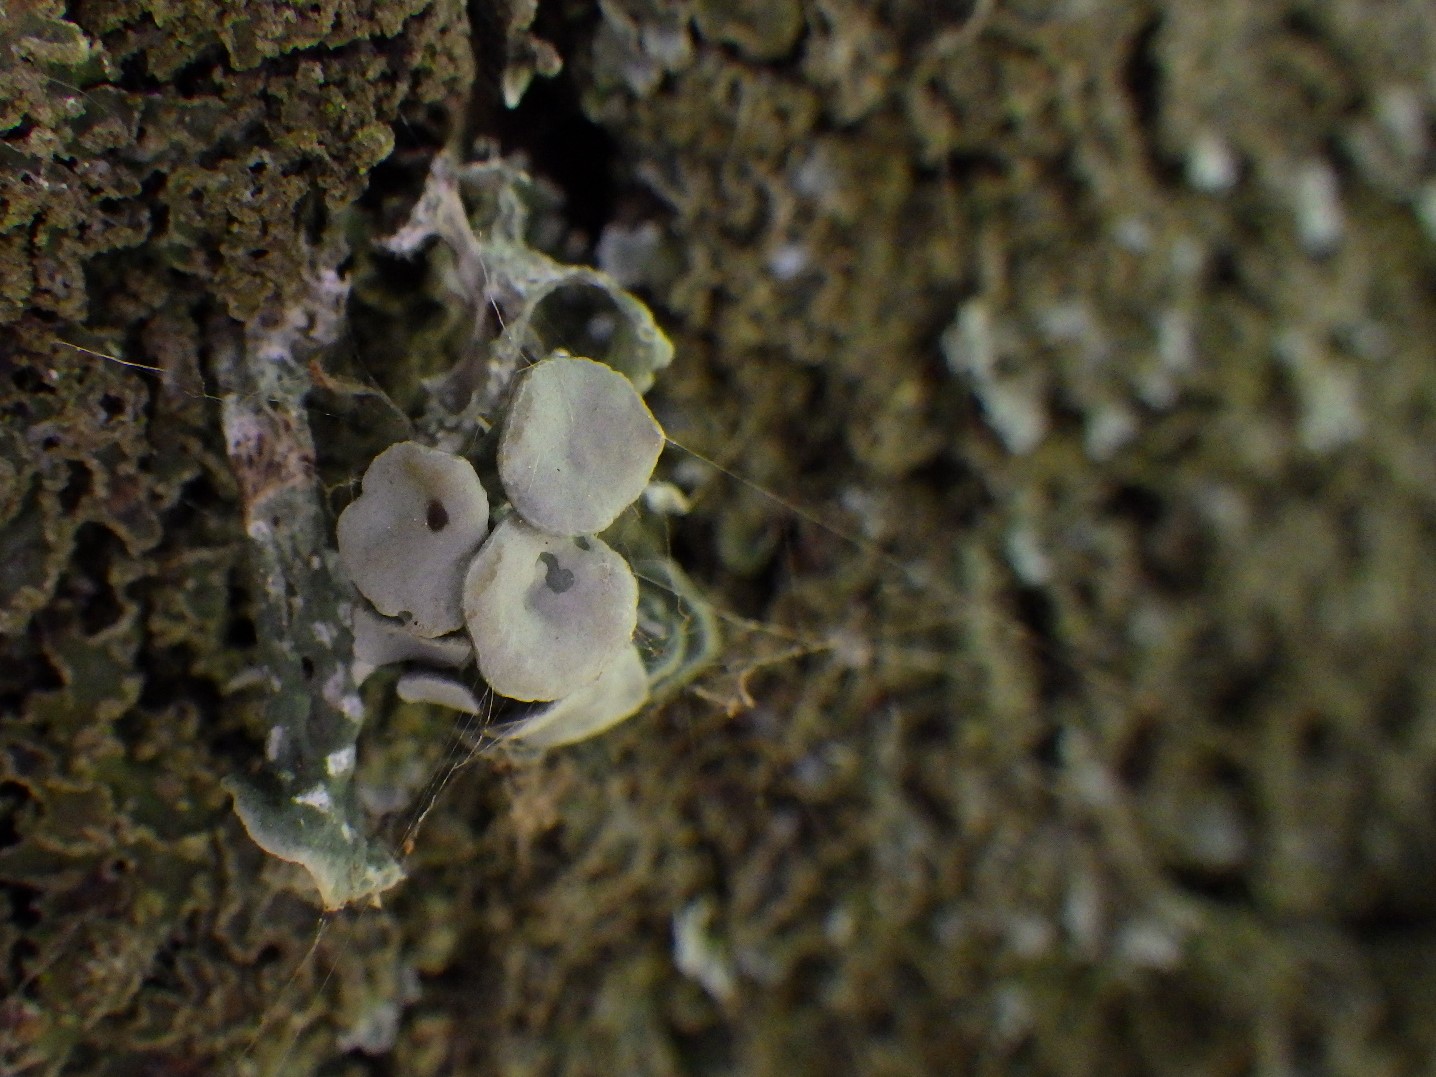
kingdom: Fungi
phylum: Ascomycota
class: Lecanoromycetes
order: Lecanorales
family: Ramalinaceae
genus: Ramalina
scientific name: Ramalina fastigiata
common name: tue-grenlav
